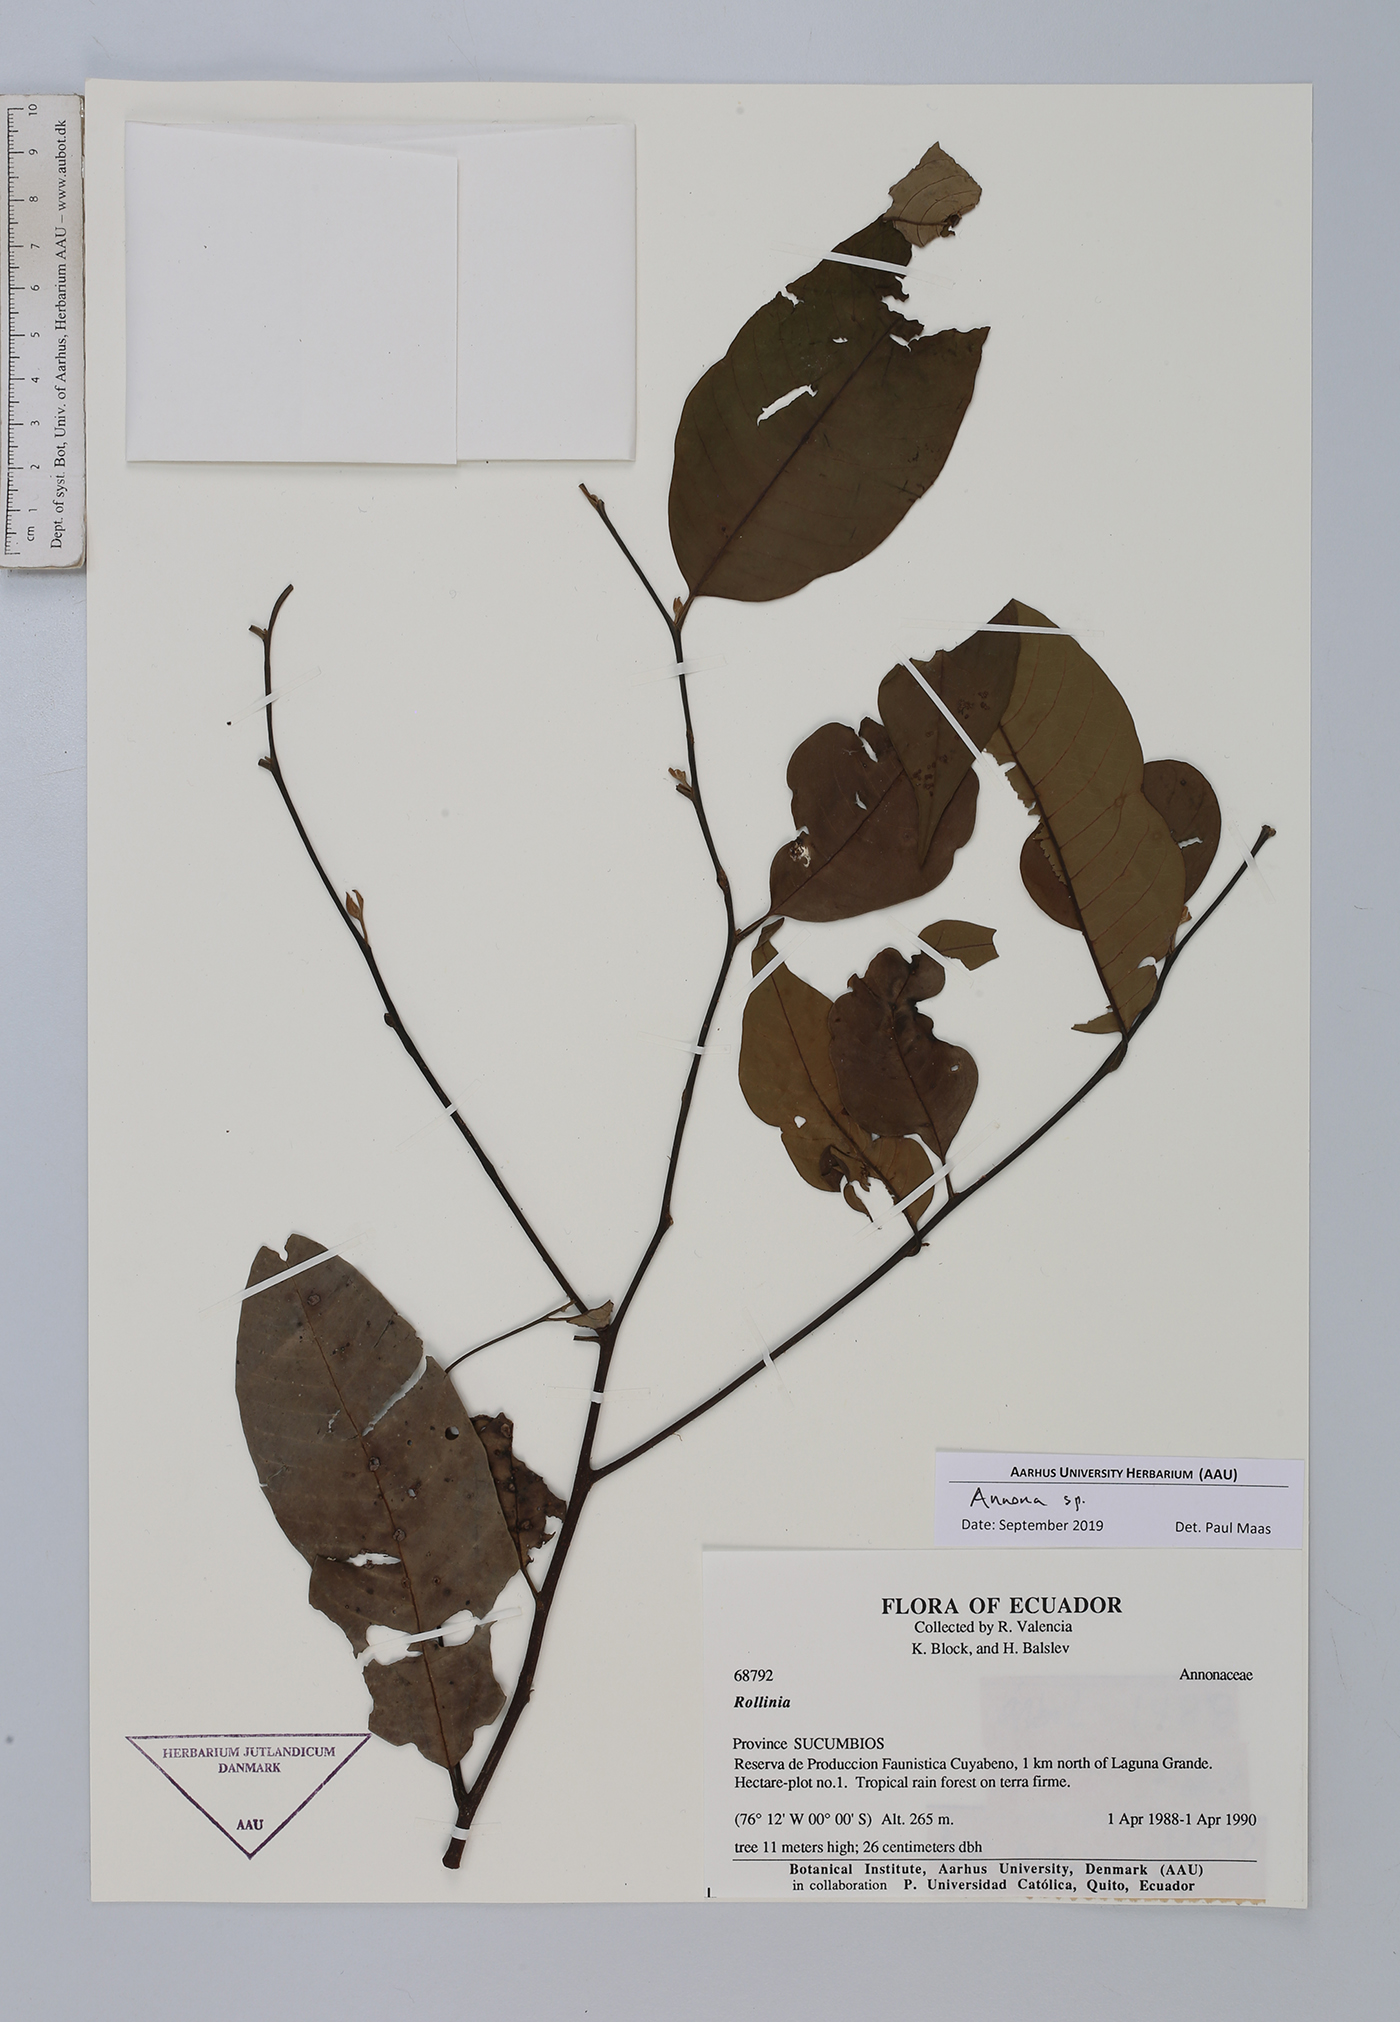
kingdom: Plantae
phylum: Tracheophyta
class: Magnoliopsida
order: Magnoliales
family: Annonaceae
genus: Annona
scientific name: Annona
